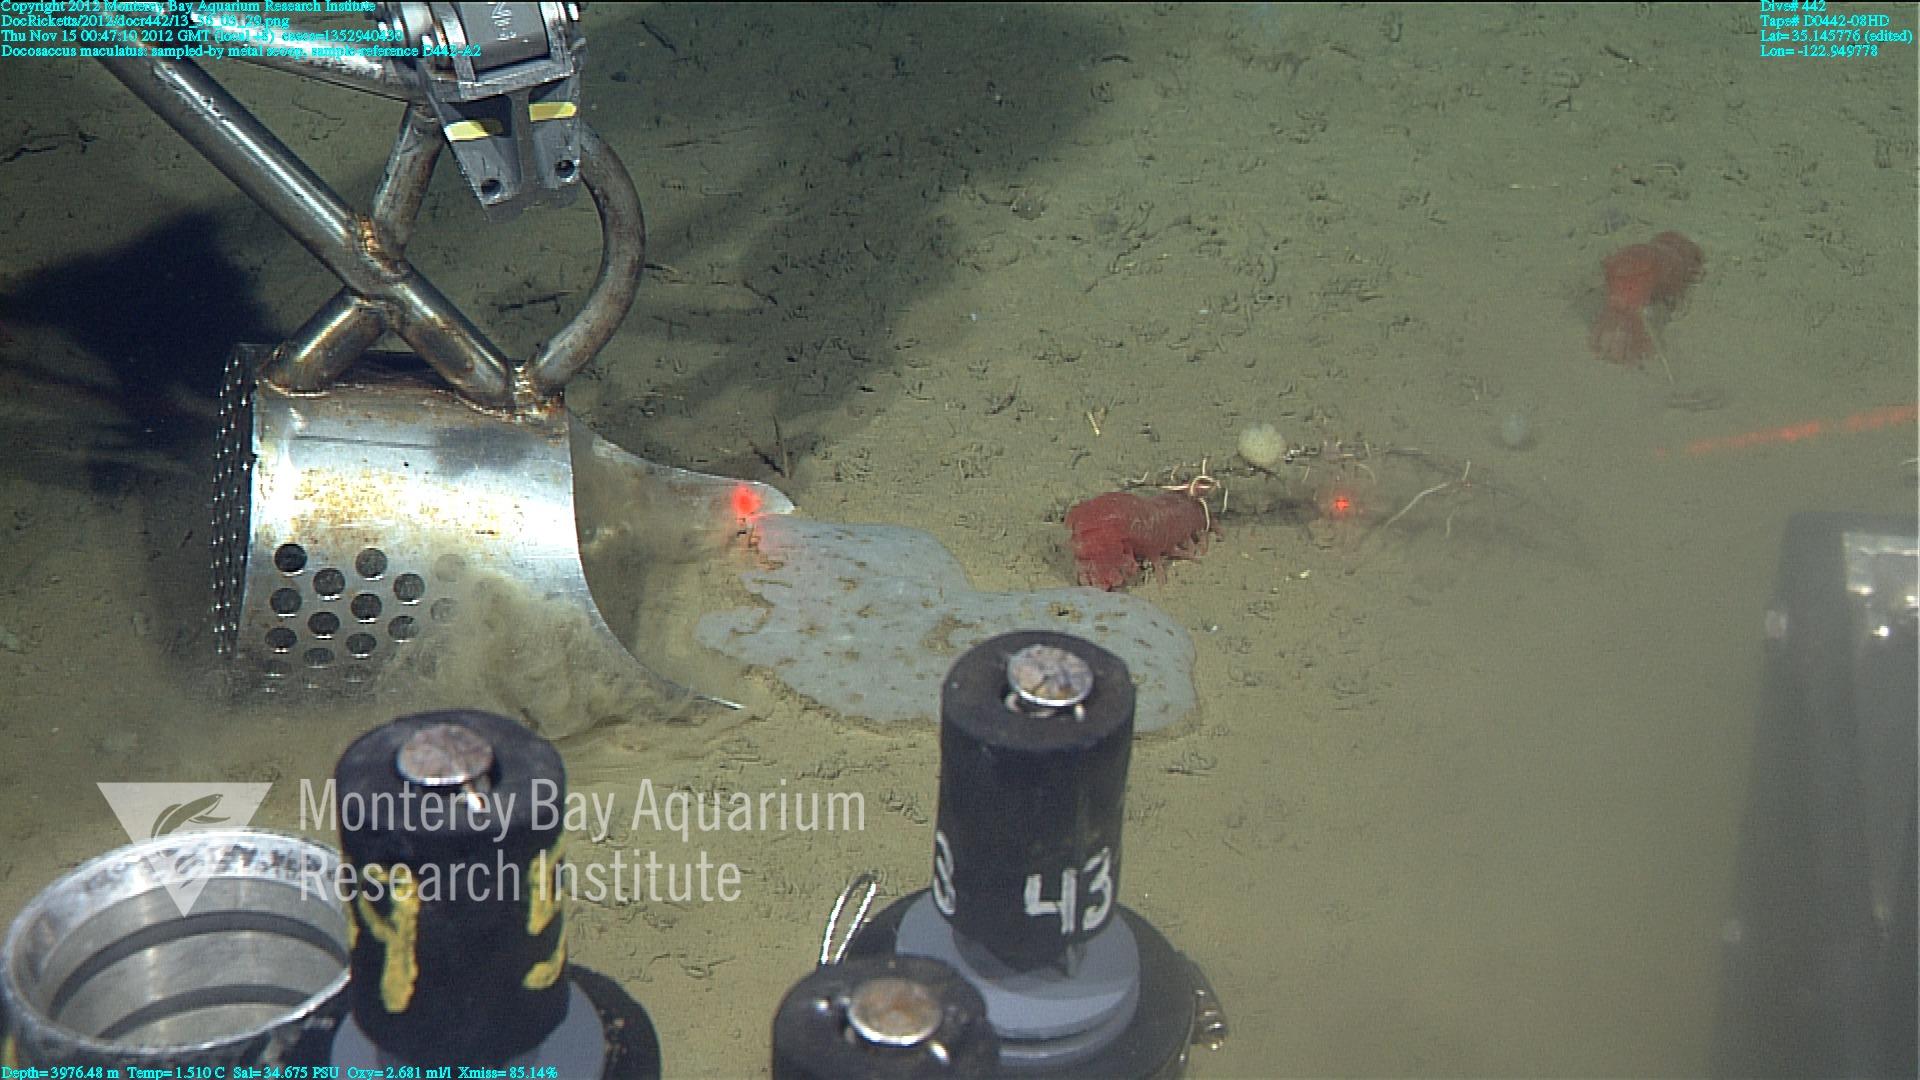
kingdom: Animalia
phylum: Porifera
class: Hexactinellida
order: Lyssacinosida
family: Euplectellidae
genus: Docosaccus
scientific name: Docosaccus maculatus
